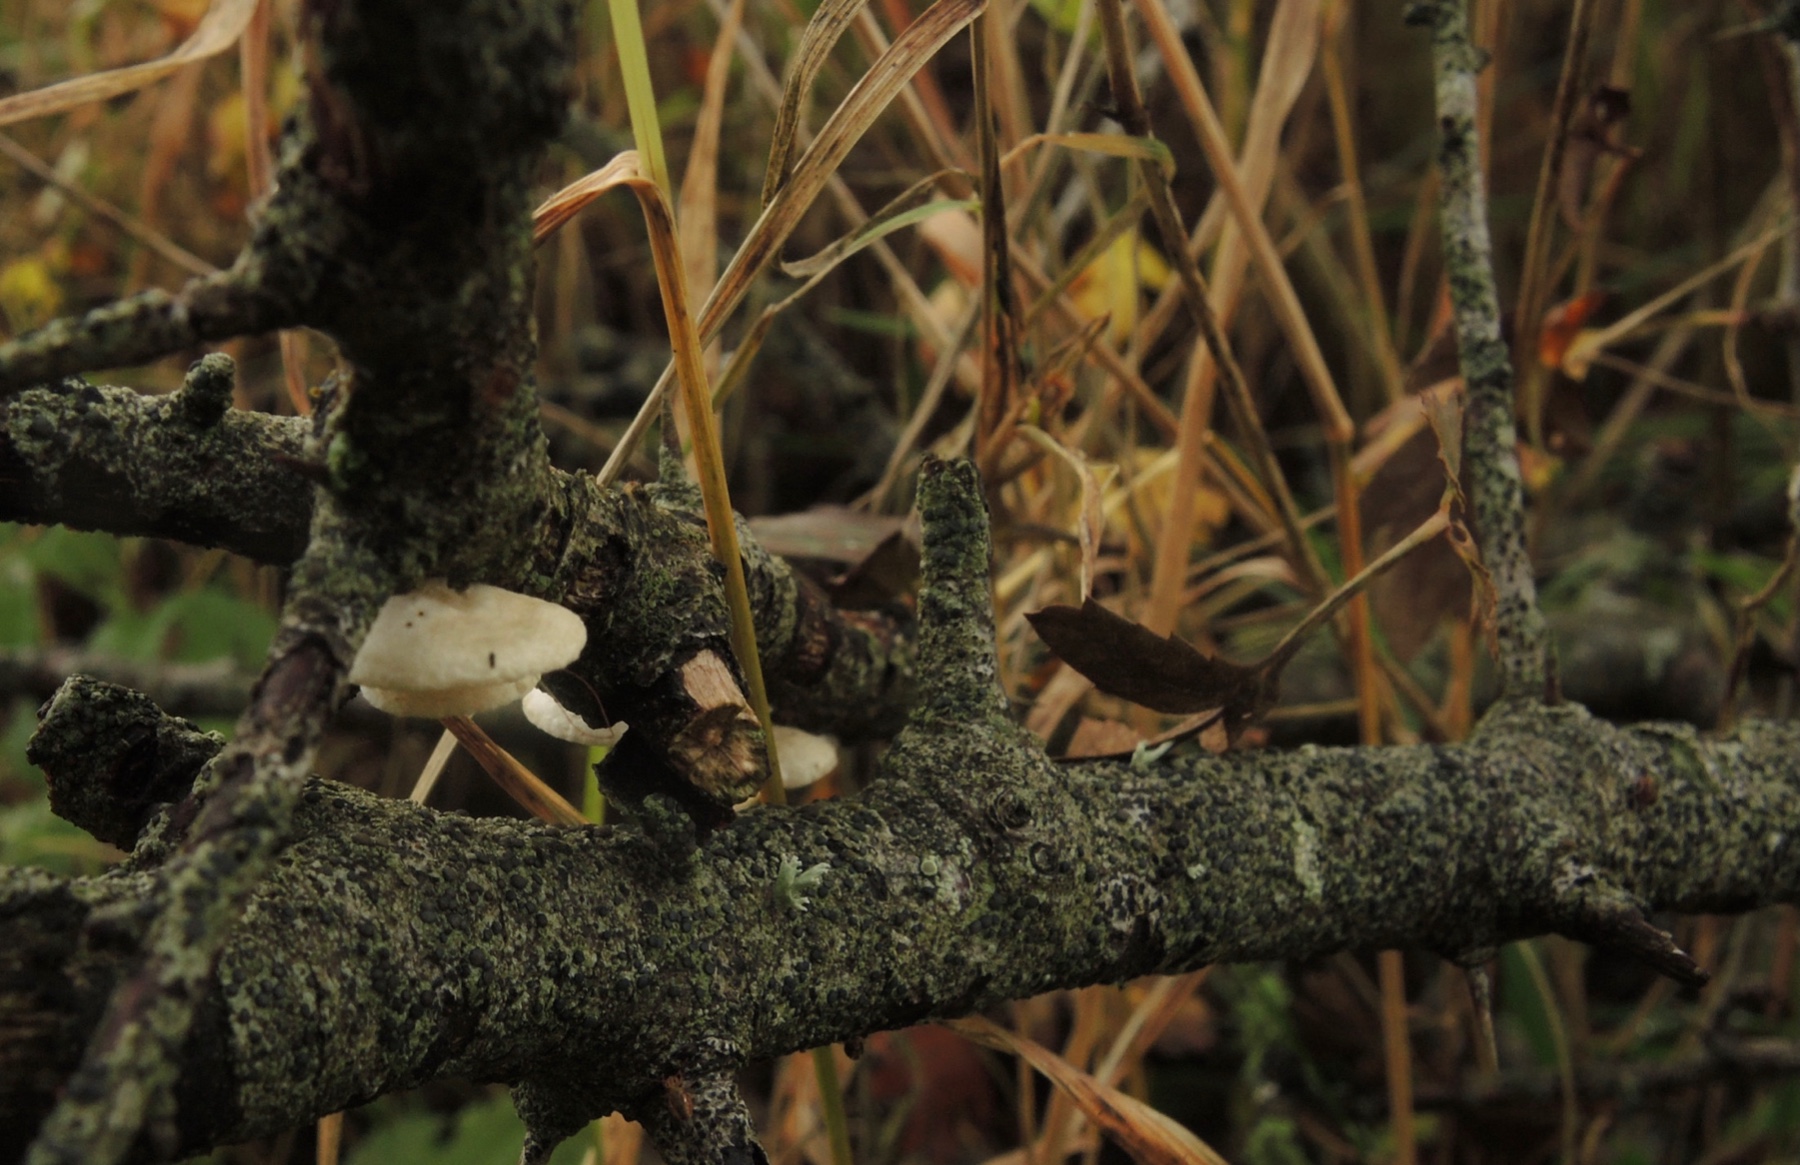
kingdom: Fungi
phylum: Basidiomycota
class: Agaricomycetes
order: Agaricales
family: Crepidotaceae
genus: Crepidotus
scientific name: Crepidotus cesatii
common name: almindelig muslingesvamp
